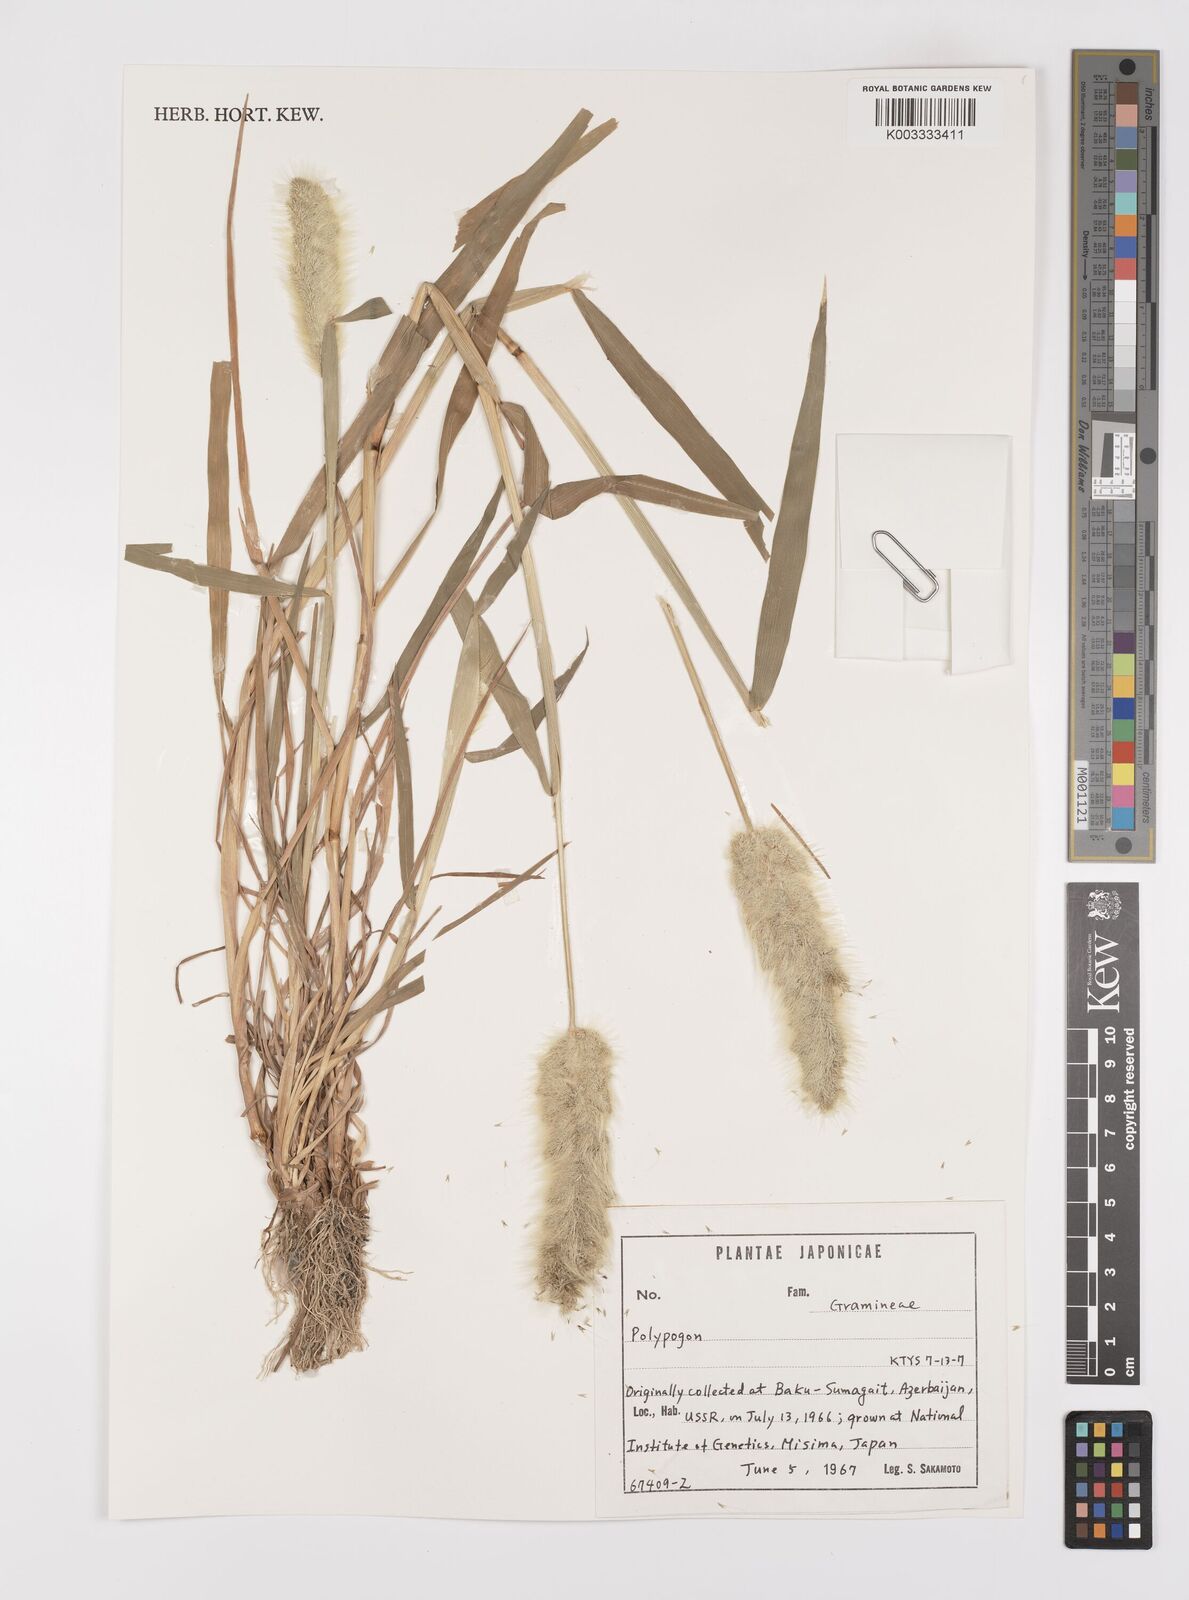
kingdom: Plantae
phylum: Tracheophyta
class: Liliopsida
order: Poales
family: Poaceae
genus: Polypogon
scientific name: Polypogon monspeliensis
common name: Annual rabbitsfoot grass
